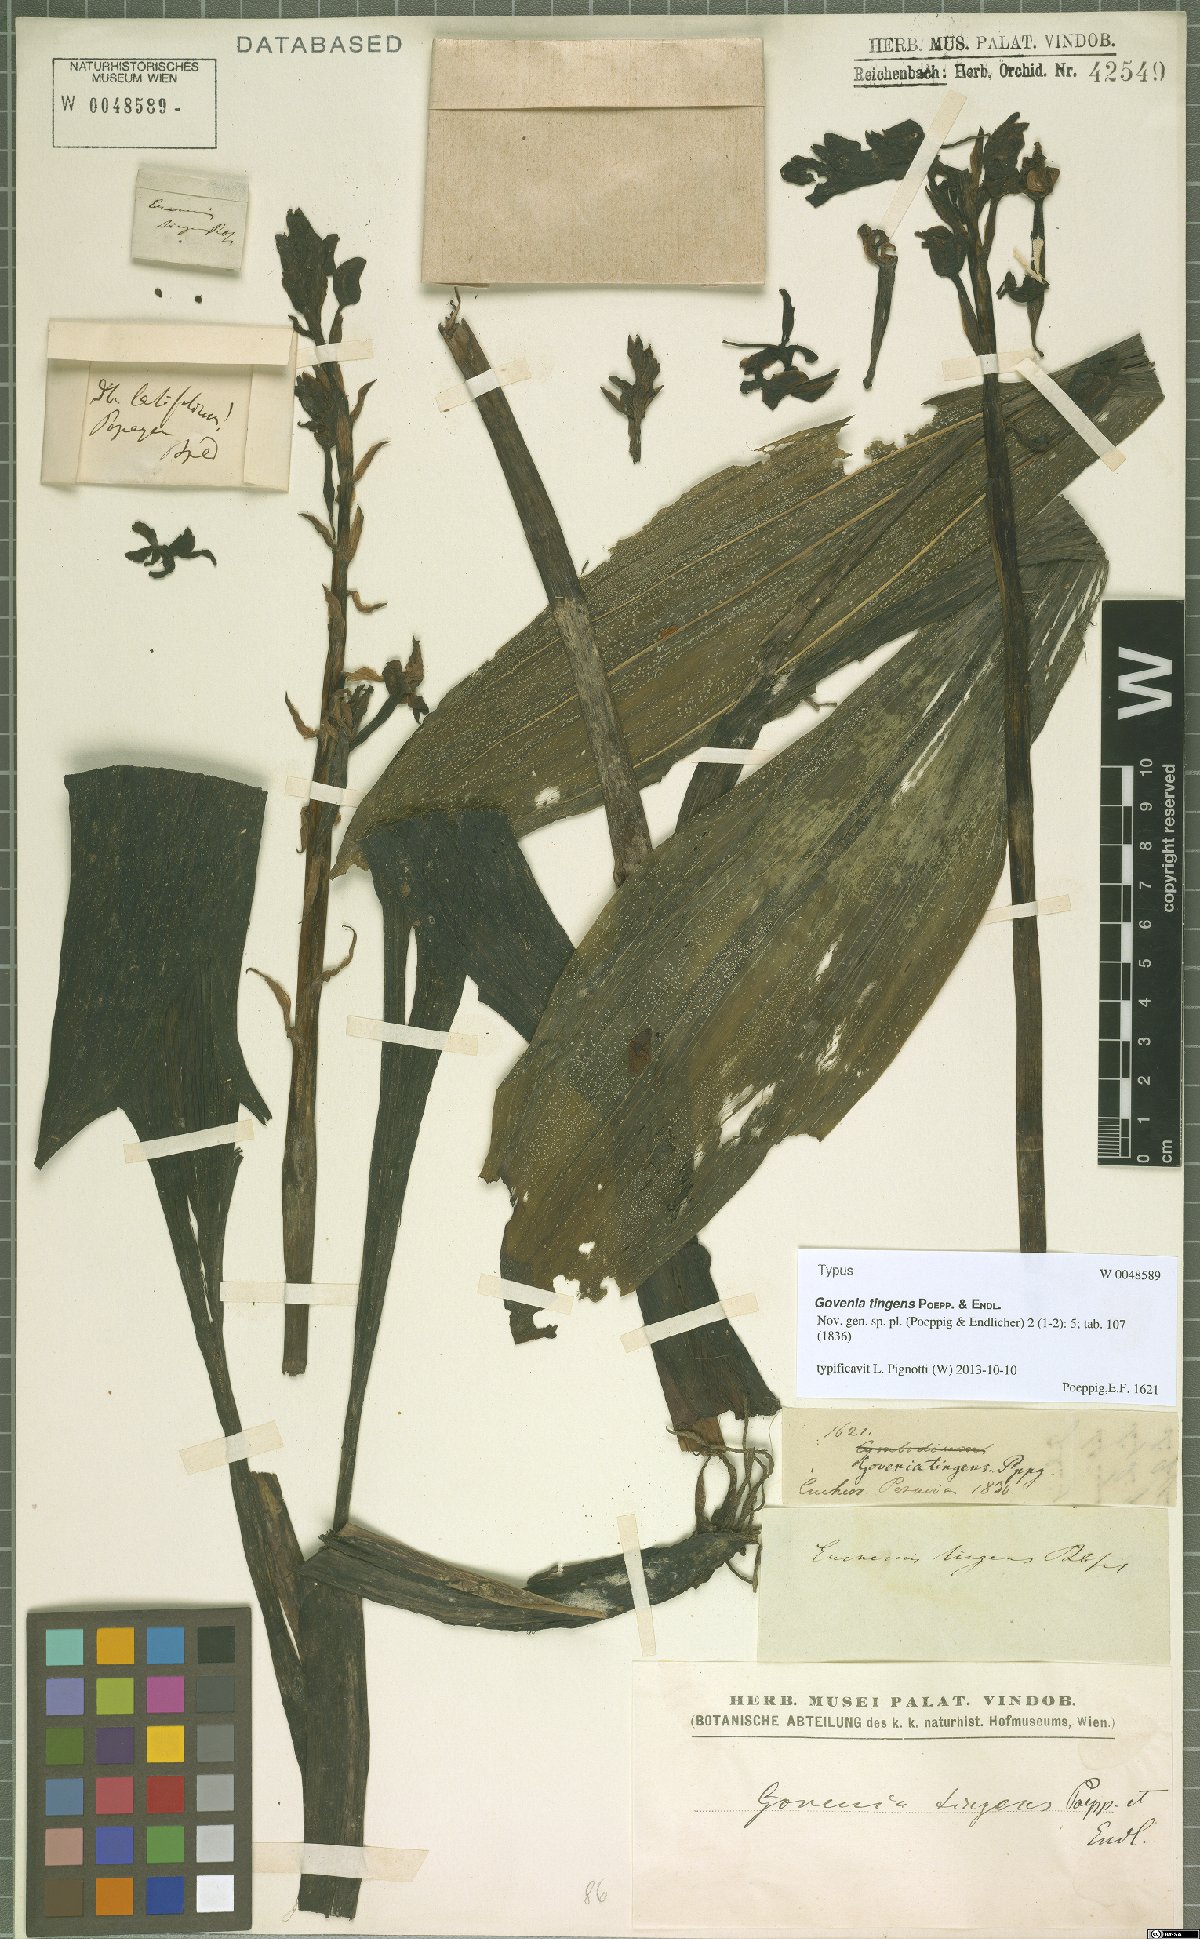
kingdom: Plantae
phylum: Tracheophyta
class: Liliopsida
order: Asparagales
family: Orchidaceae
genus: Govenia
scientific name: Govenia tingens
